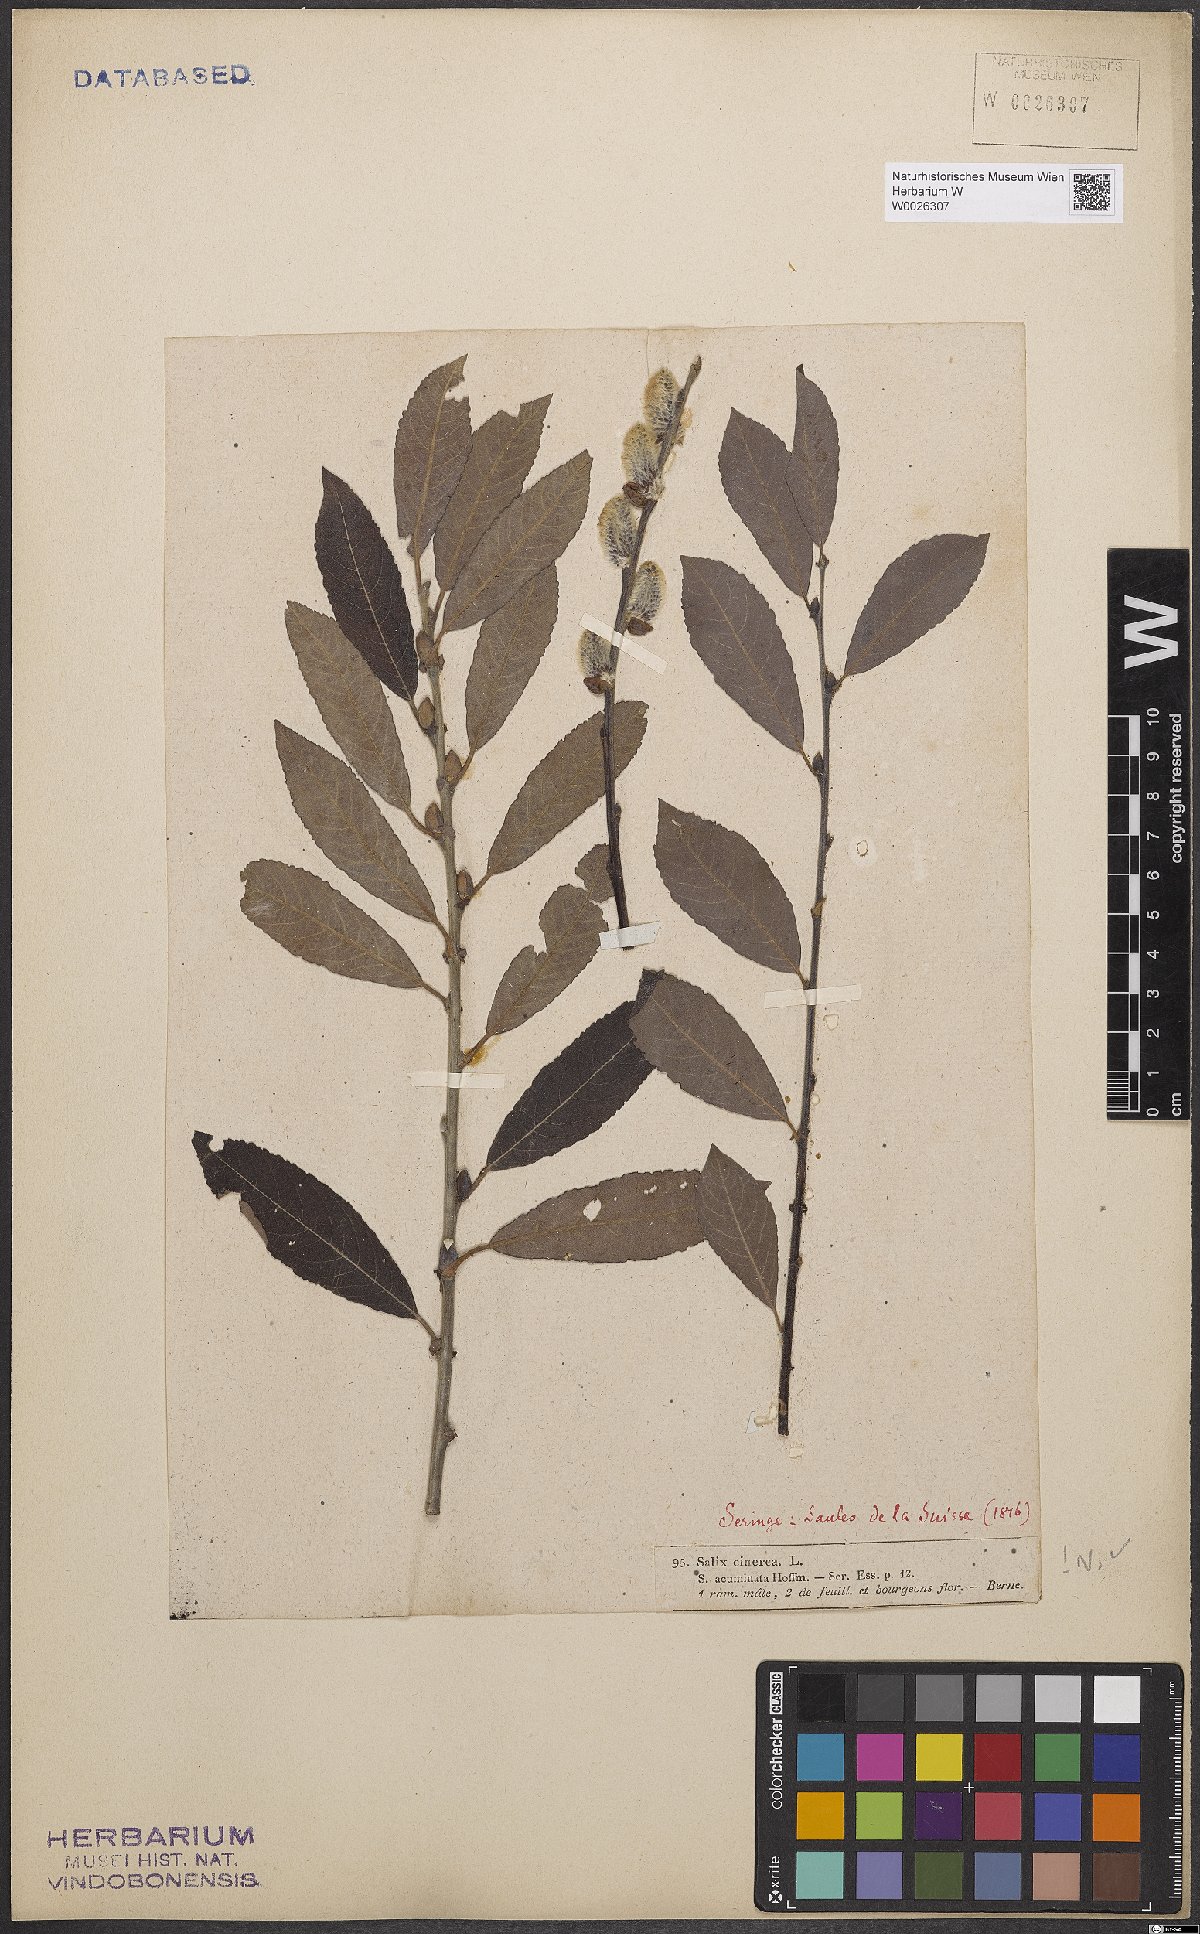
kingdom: Plantae
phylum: Tracheophyta
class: Magnoliopsida
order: Malpighiales
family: Salicaceae
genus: Salix
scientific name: Salix cinerea
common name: Common sallow
